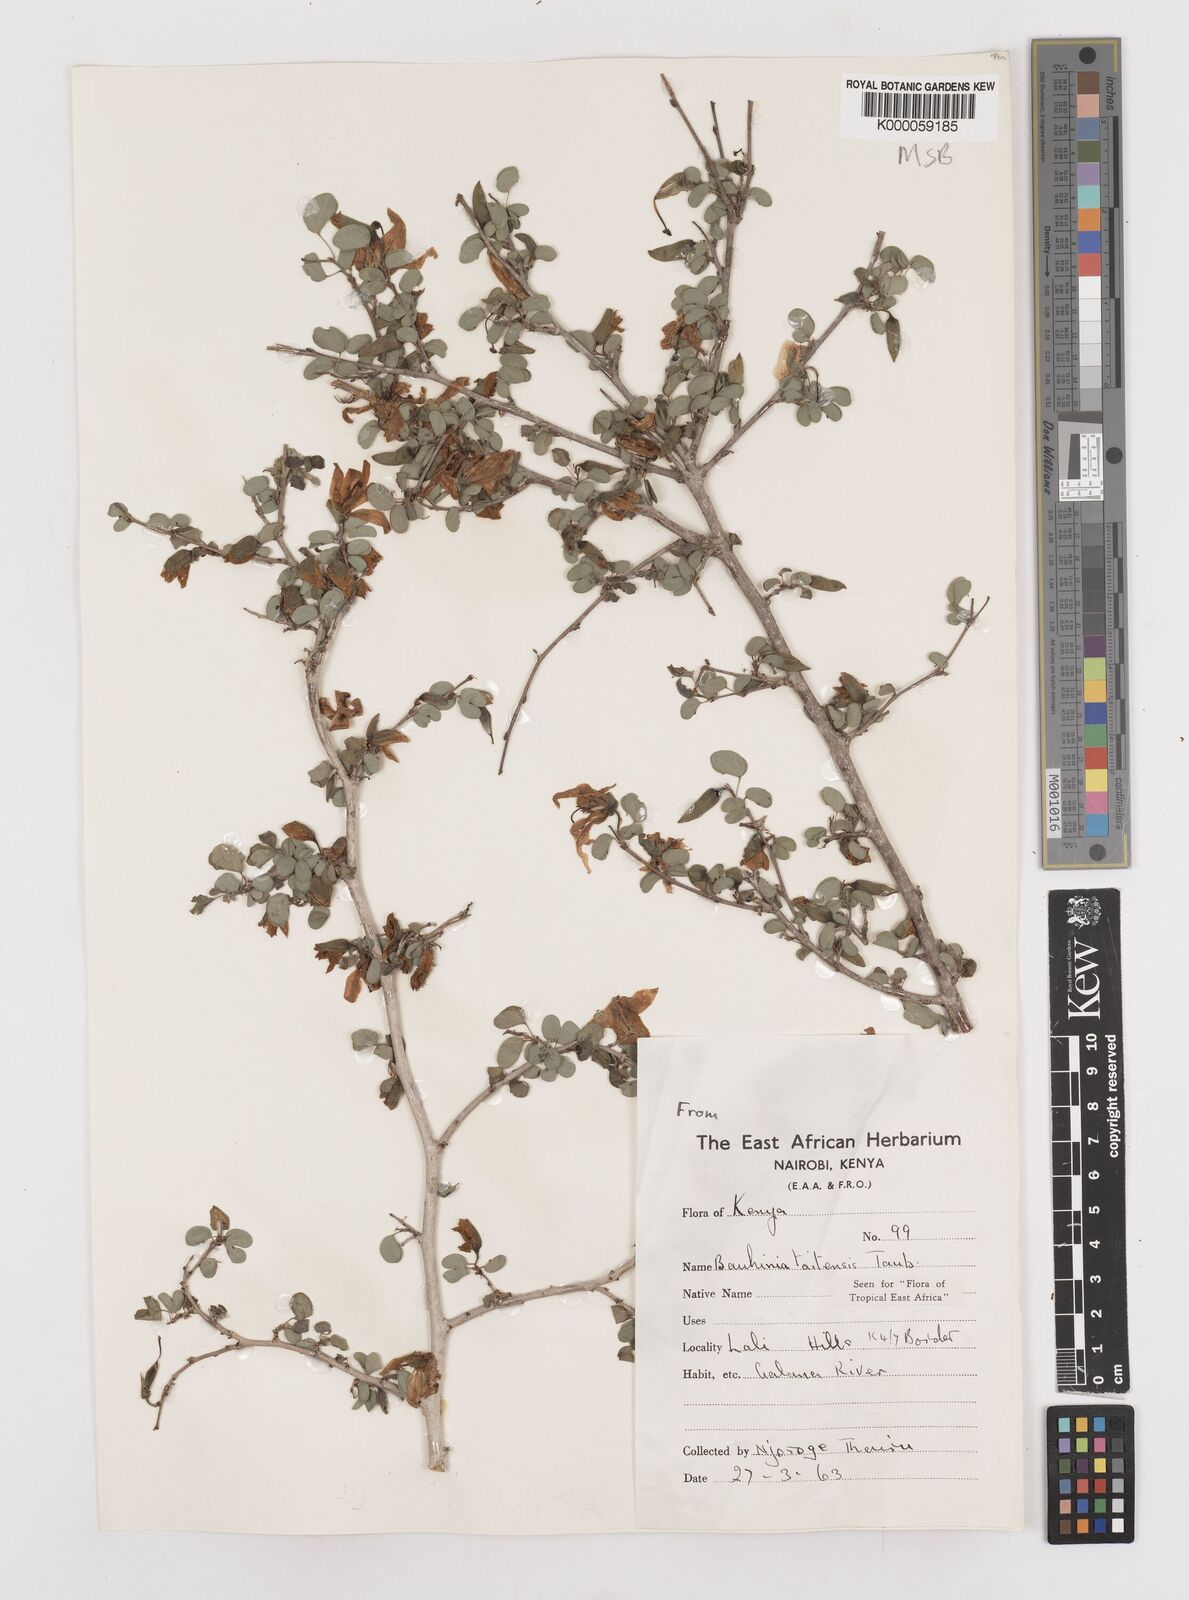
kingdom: Plantae
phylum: Tracheophyta
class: Magnoliopsida
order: Fabales
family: Fabaceae
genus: Bauhinia
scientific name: Bauhinia taitensis
